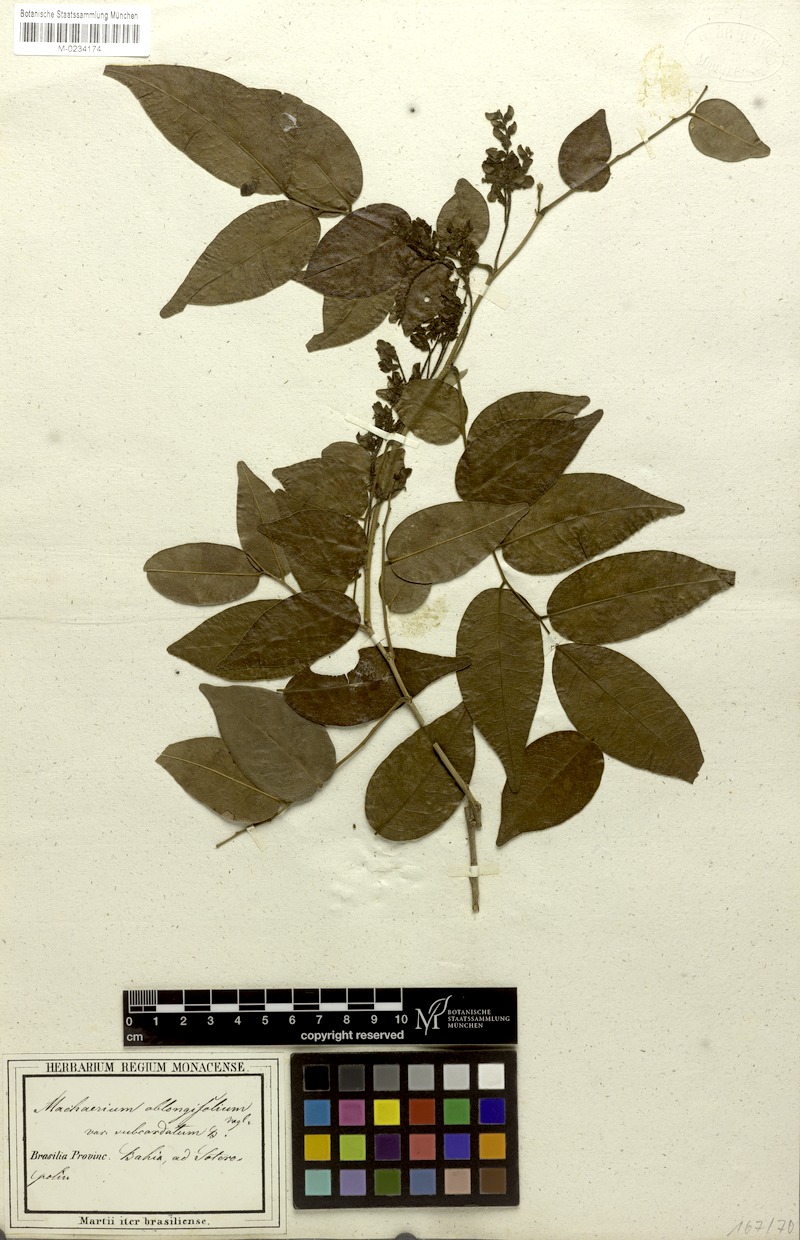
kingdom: Plantae
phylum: Tracheophyta
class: Magnoliopsida
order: Fabales
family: Fabaceae
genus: Machaerium
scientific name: Machaerium punctatum
